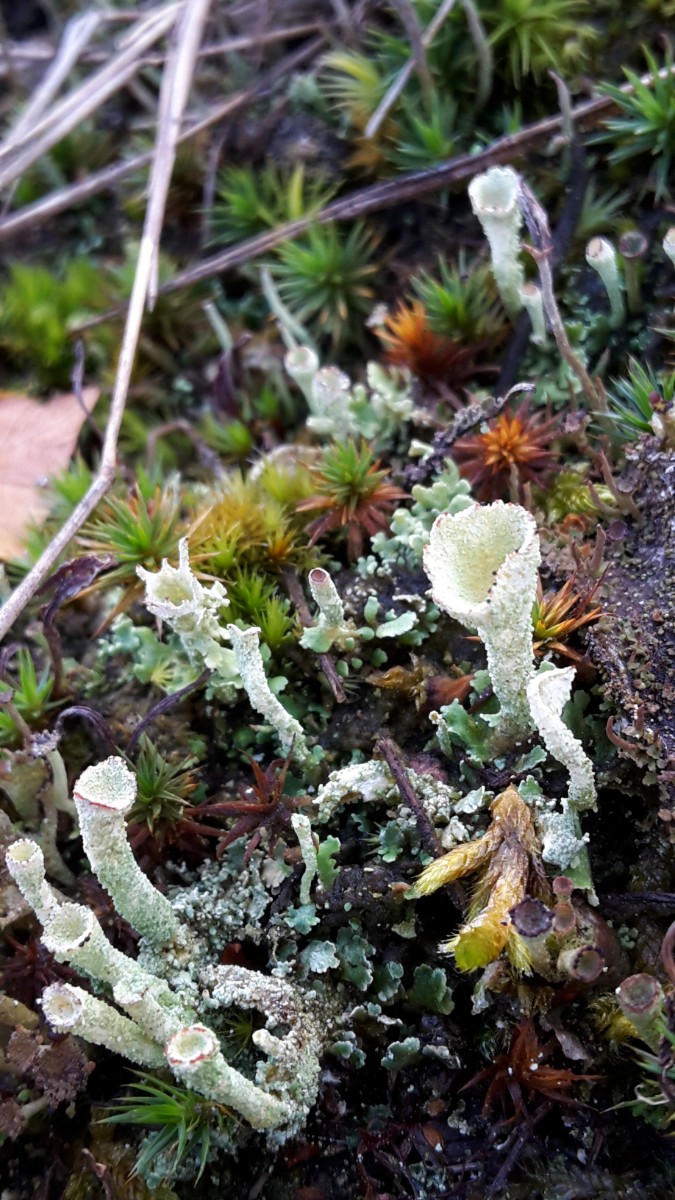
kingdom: Fungi
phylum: Ascomycota
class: Lecanoromycetes
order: Lecanorales
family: Cladoniaceae
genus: Cladonia
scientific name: Cladonia
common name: brungrøn bægerlav
